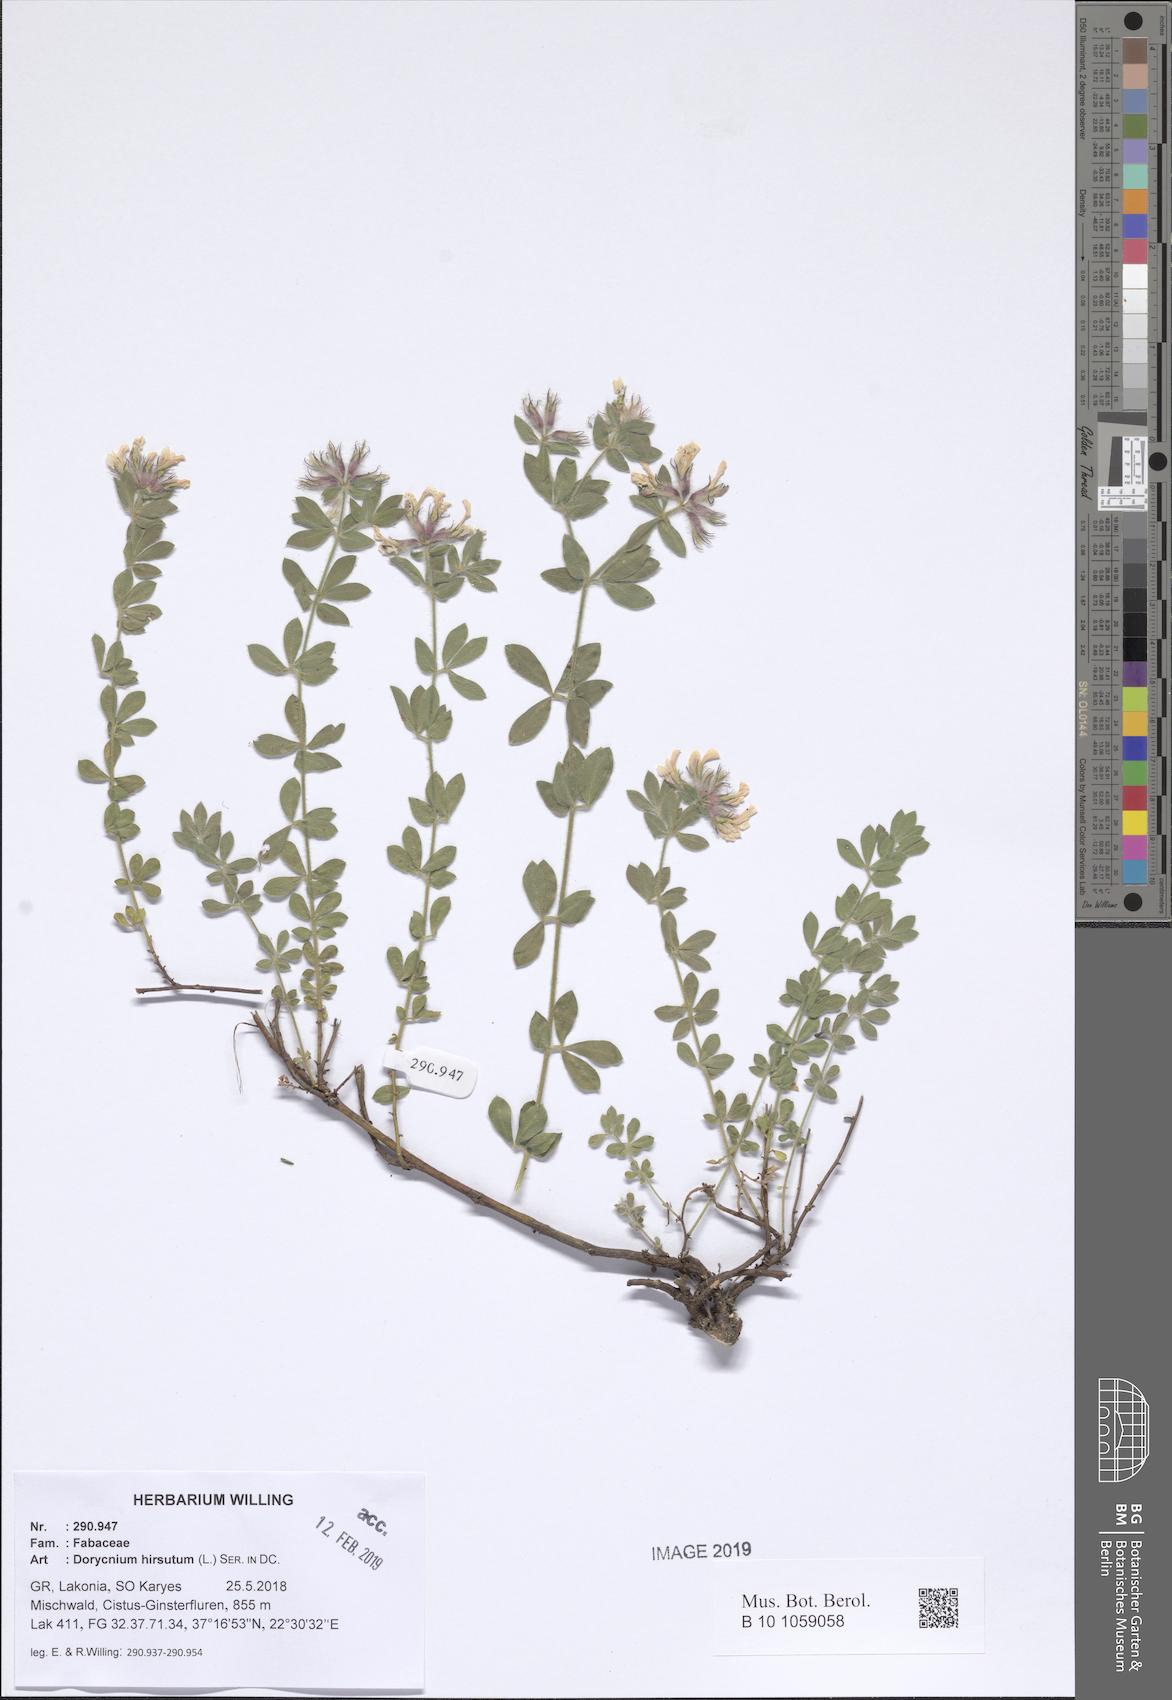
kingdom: Plantae
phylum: Tracheophyta
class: Magnoliopsida
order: Fabales
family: Fabaceae
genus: Lotus
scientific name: Lotus hirsutus
